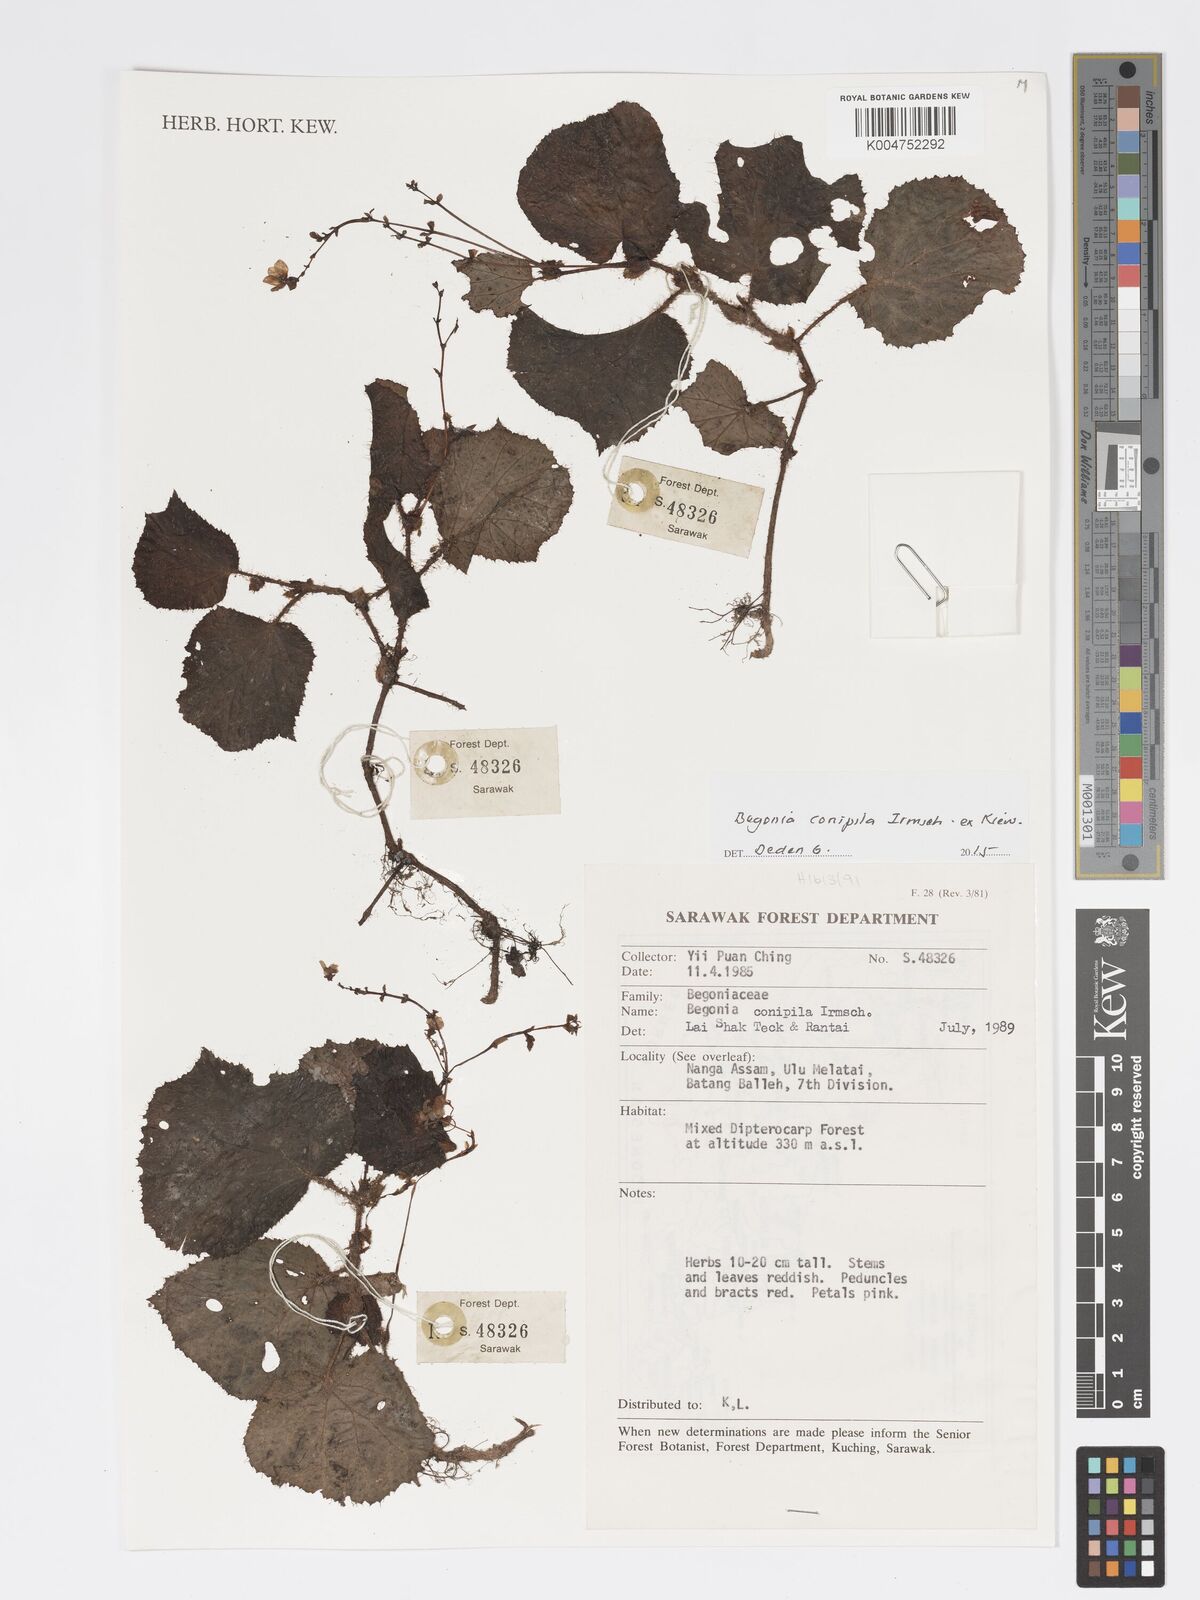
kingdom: Plantae
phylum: Tracheophyta
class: Magnoliopsida
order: Cucurbitales
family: Begoniaceae
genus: Begonia
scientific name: Begonia conipila
